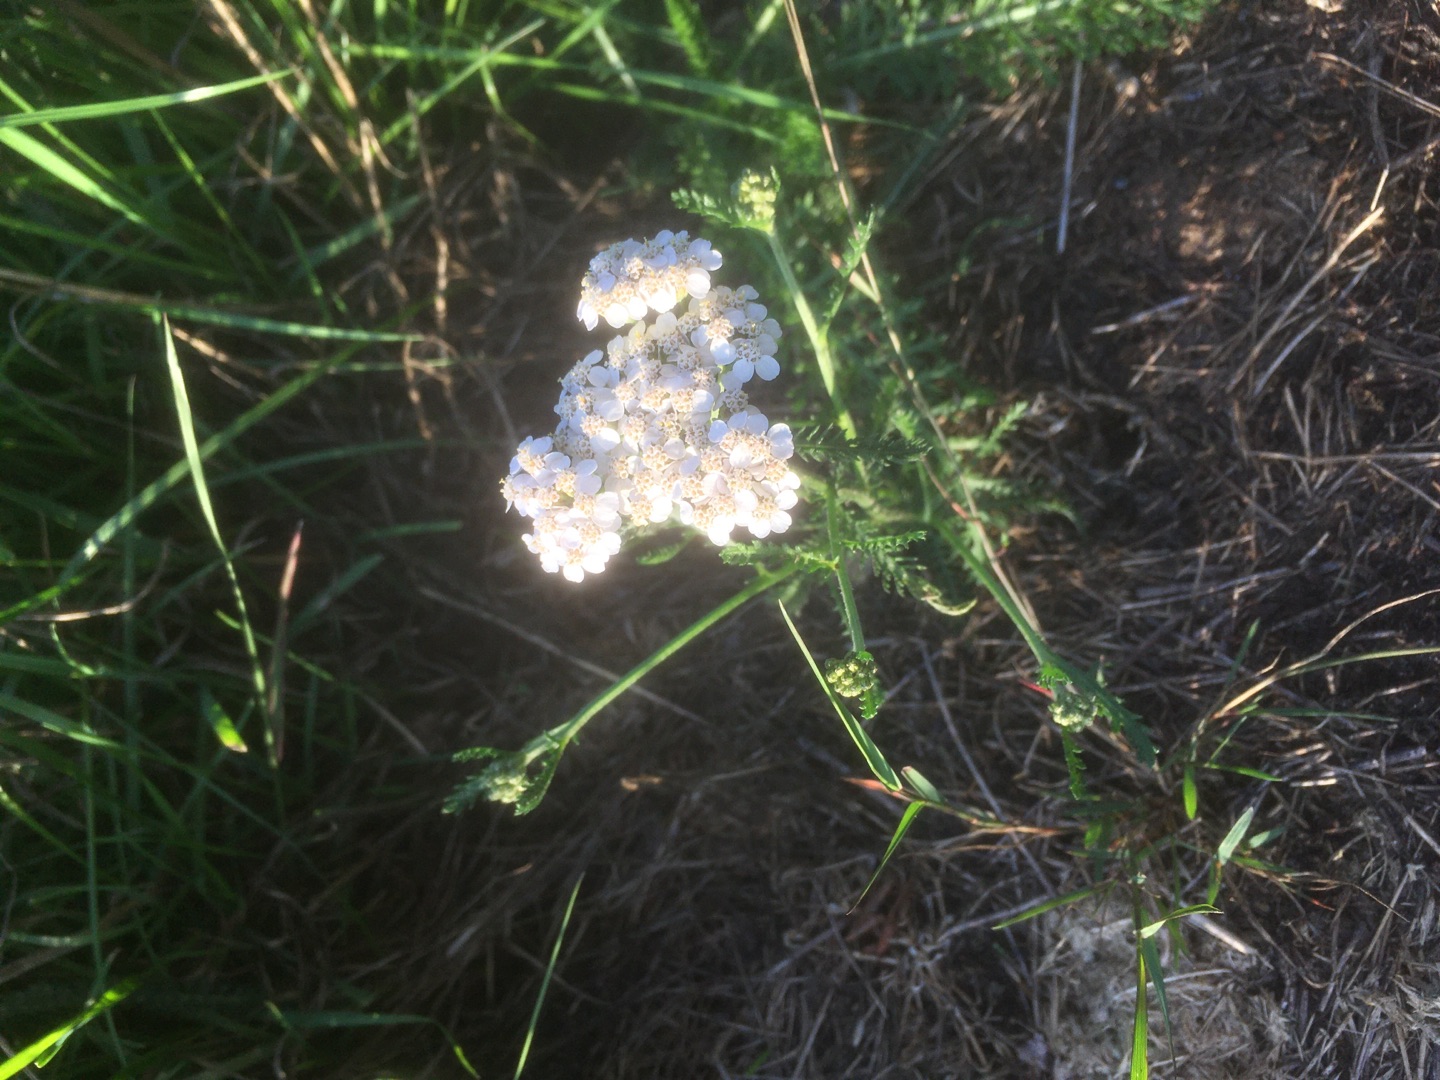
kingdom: Plantae
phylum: Tracheophyta
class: Magnoliopsida
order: Asterales
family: Asteraceae
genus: Achillea
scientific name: Achillea millefolium
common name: Almindelig røllike
